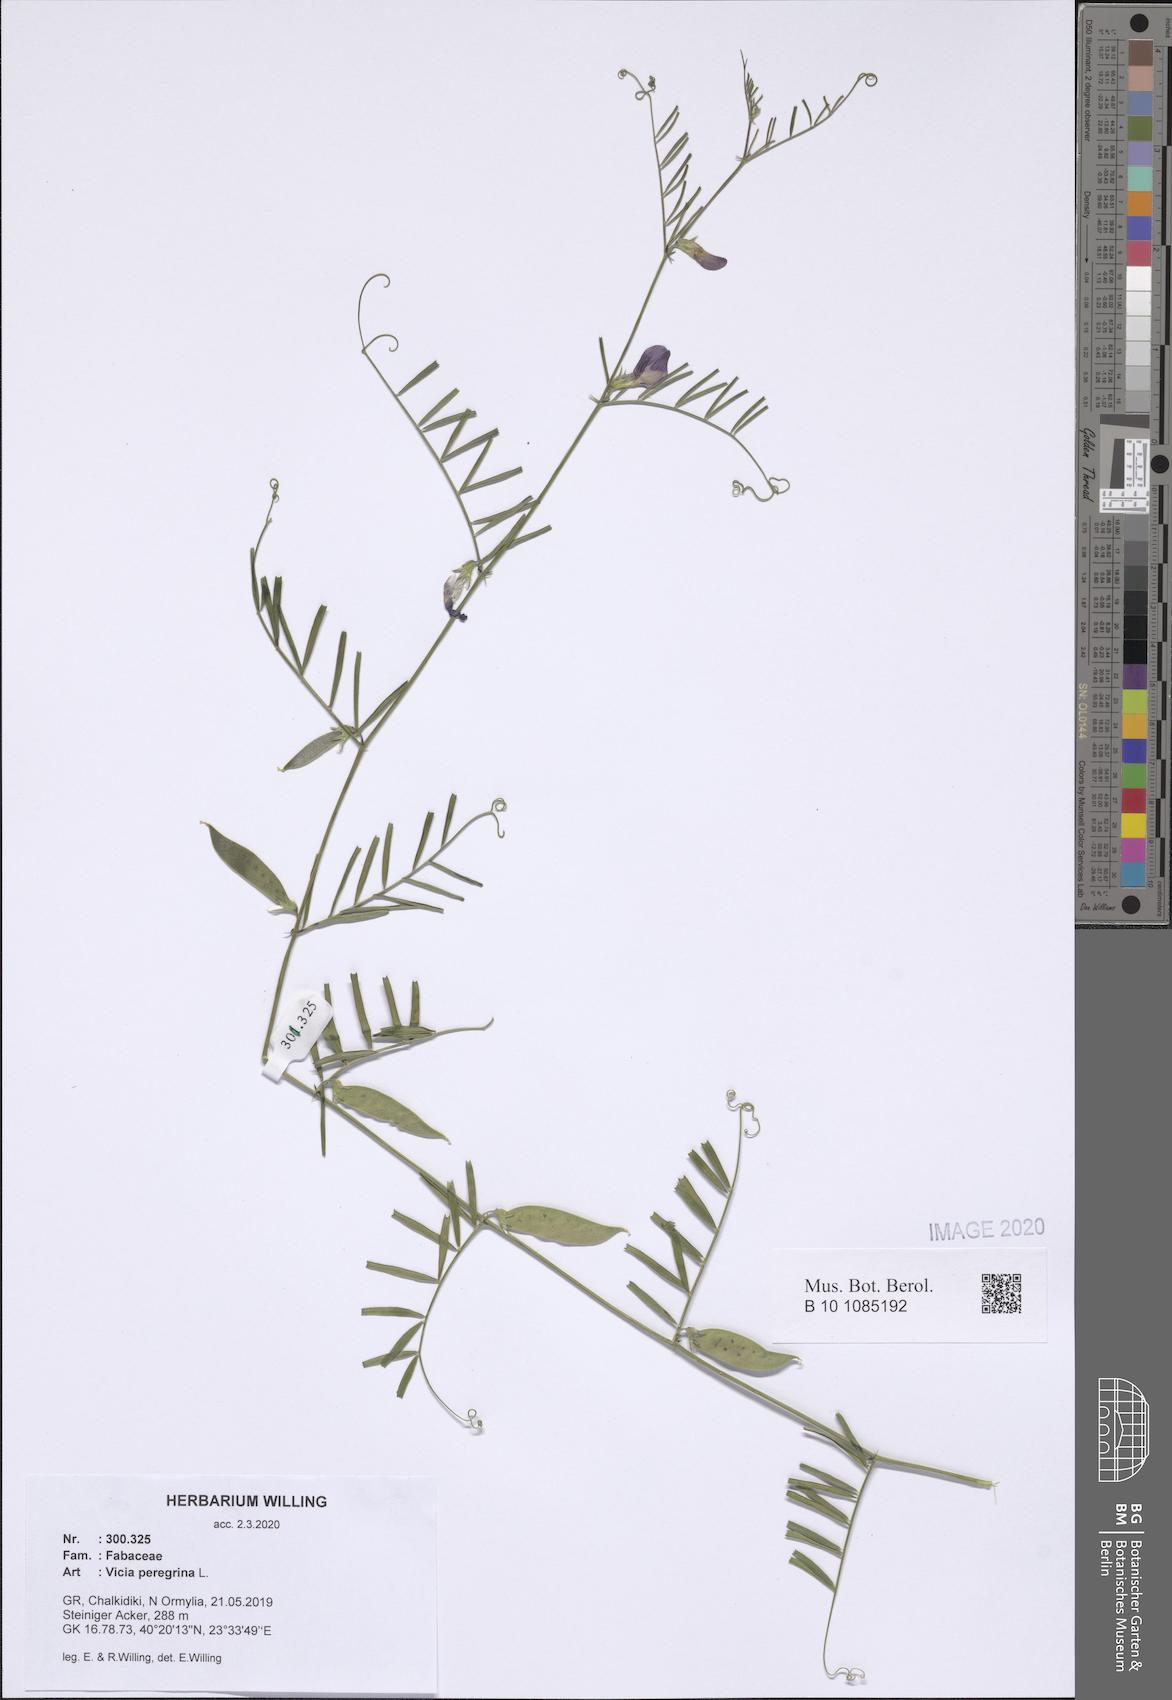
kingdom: Plantae
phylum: Tracheophyta
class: Magnoliopsida
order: Fabales
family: Fabaceae
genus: Vicia
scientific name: Vicia peregrina
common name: Broad-pod vetch
